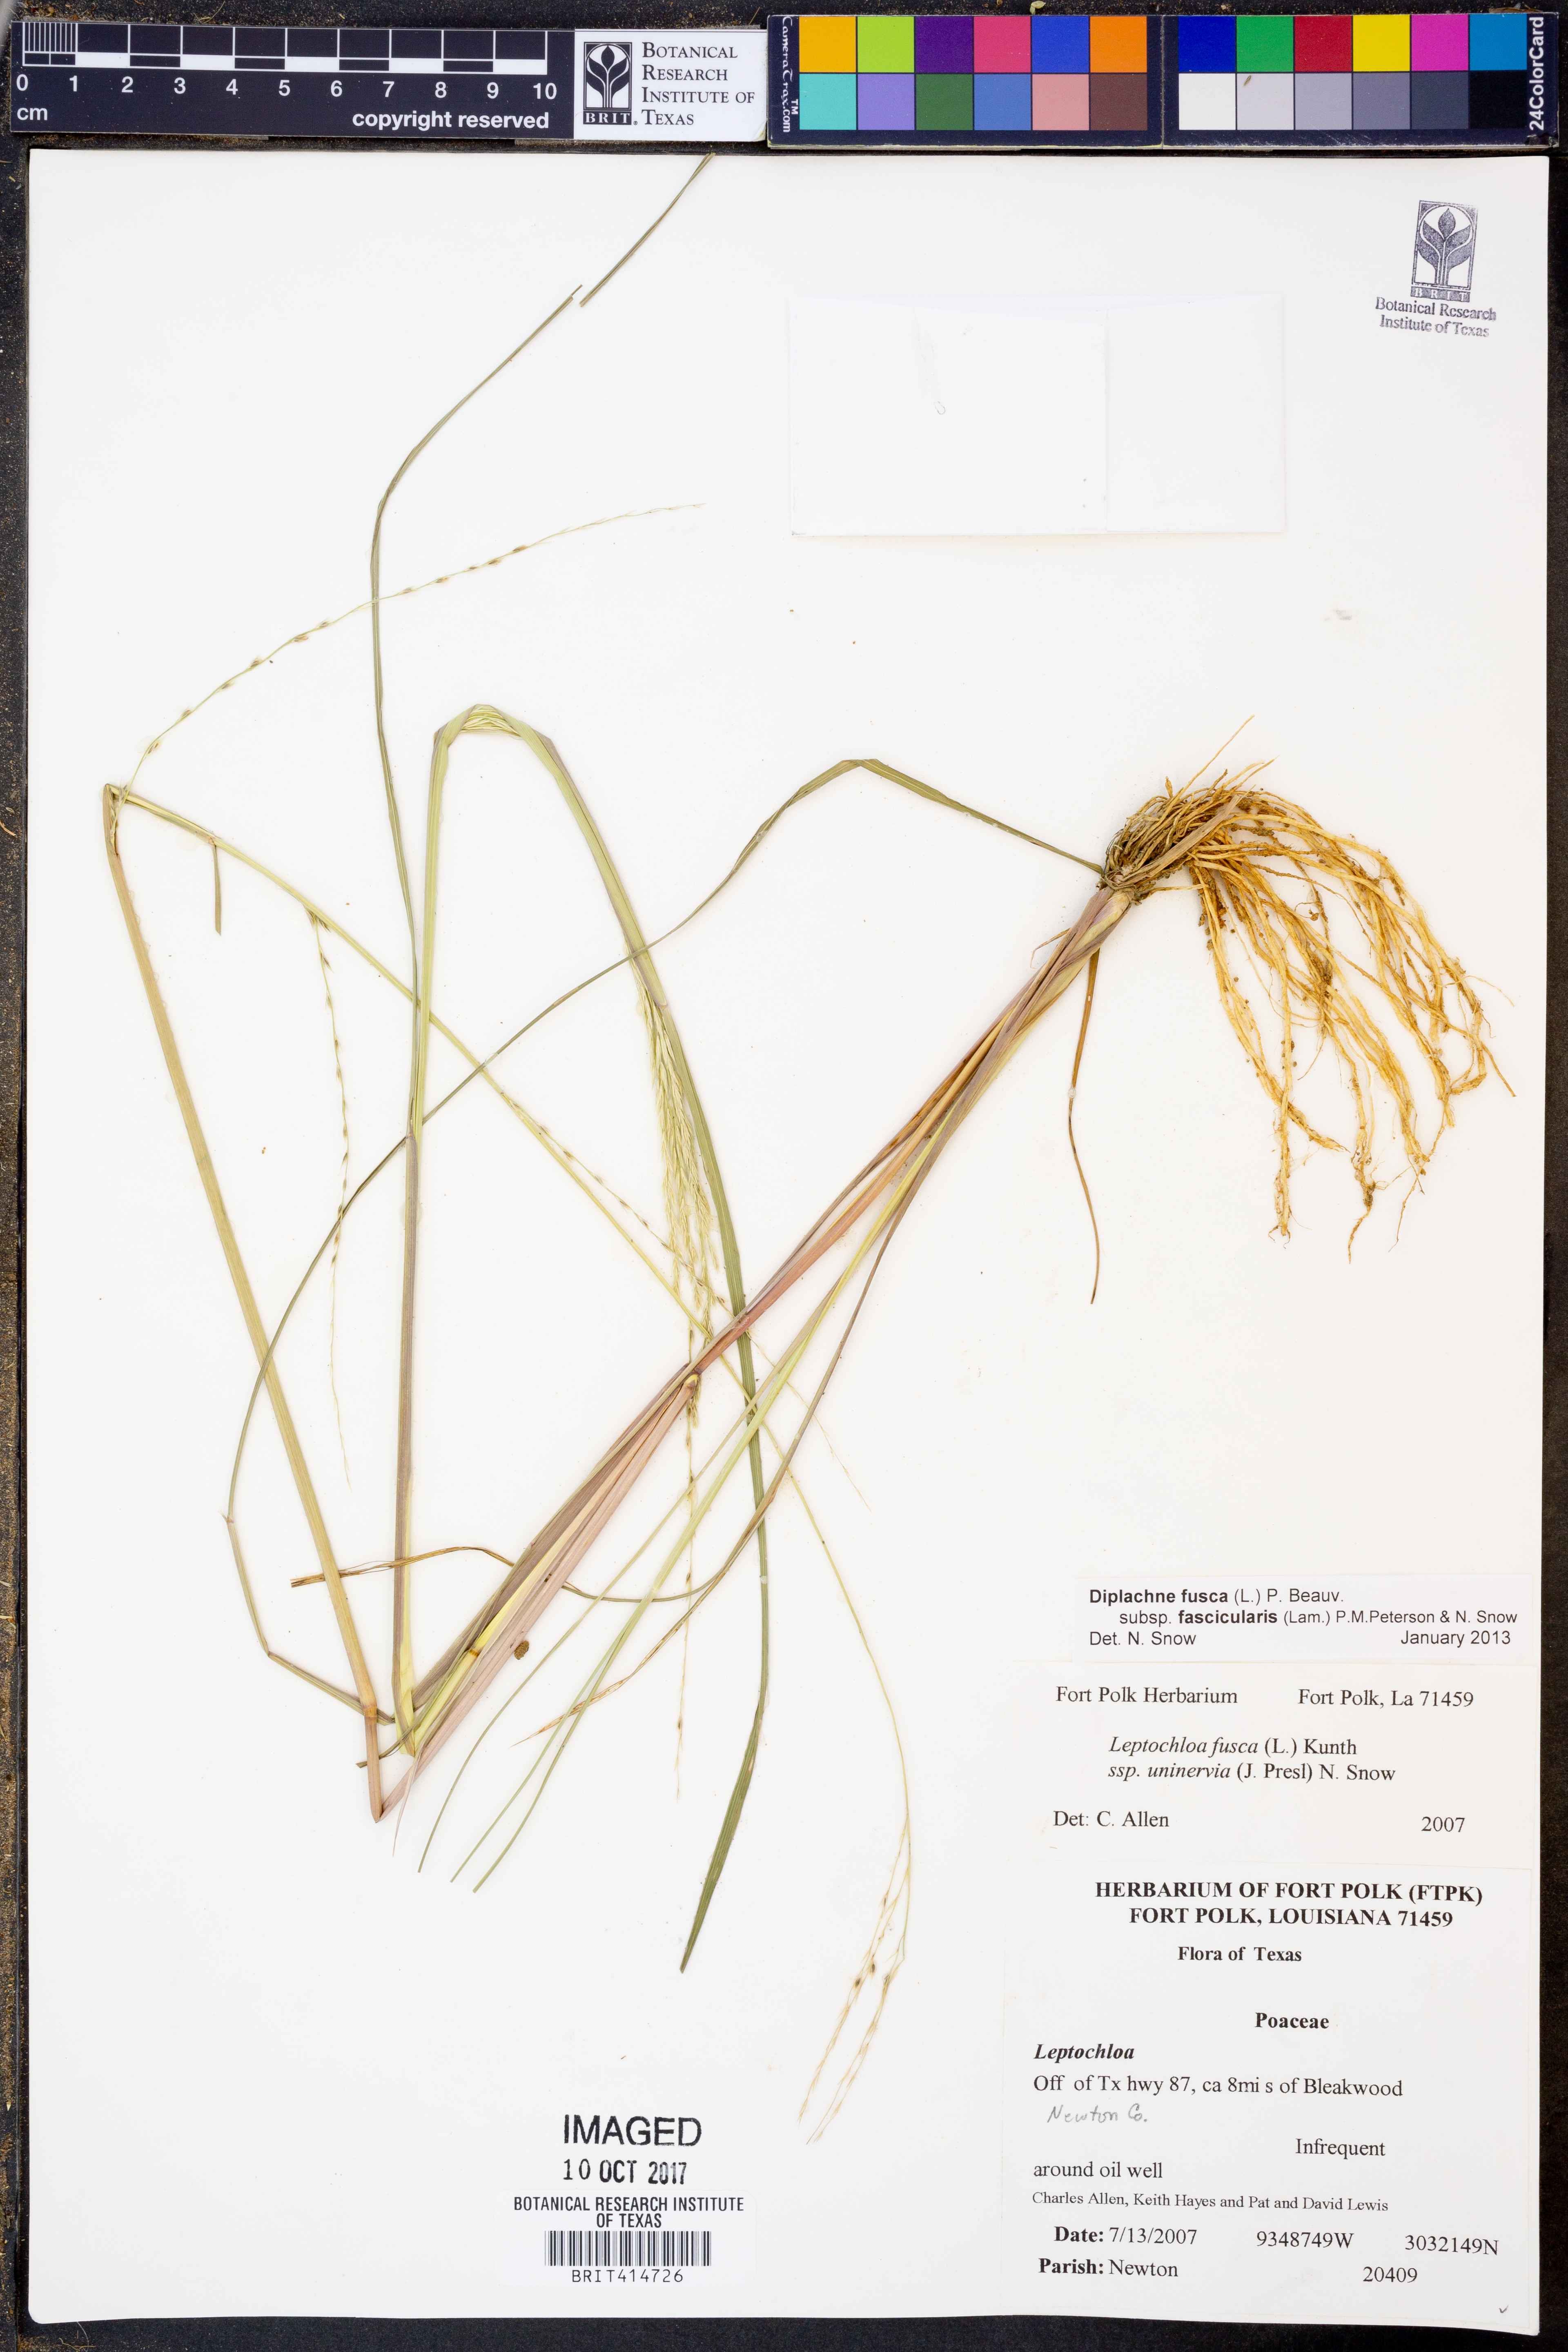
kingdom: Plantae
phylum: Tracheophyta
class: Liliopsida
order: Poales
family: Poaceae
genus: Diplachne
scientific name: Diplachne fusca
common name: Brown beetle grass
